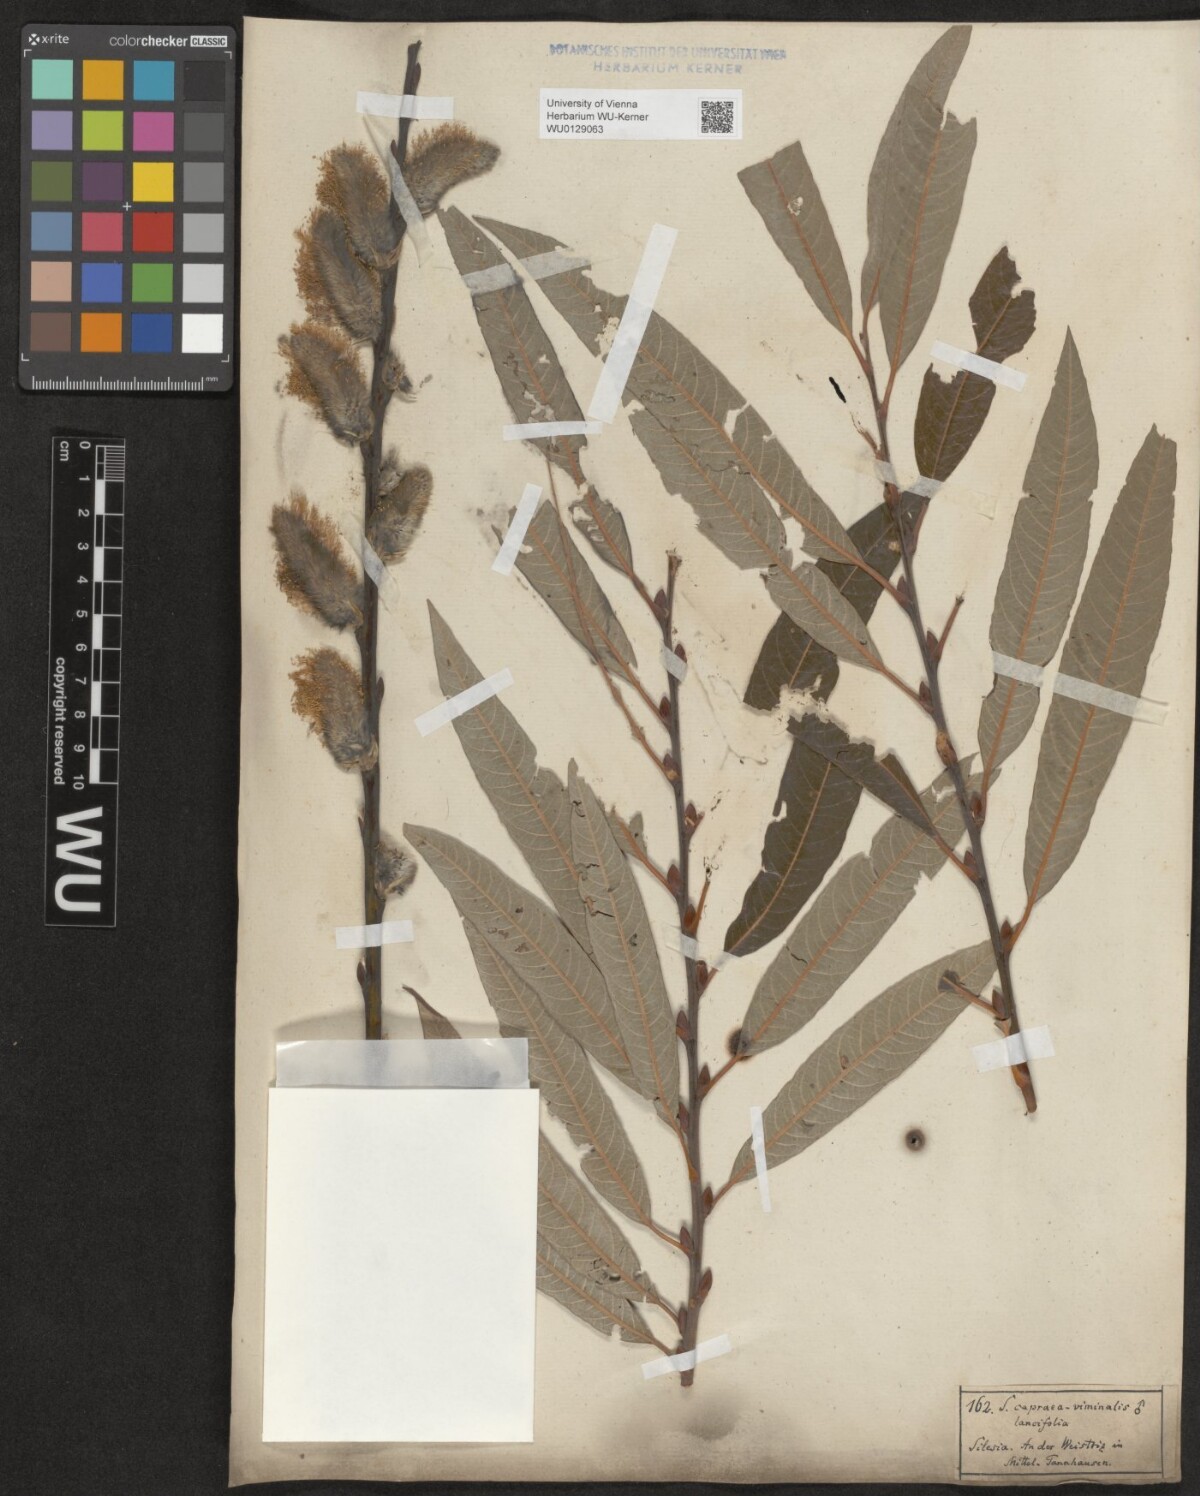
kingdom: Plantae
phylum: Tracheophyta
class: Magnoliopsida
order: Malpighiales
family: Salicaceae
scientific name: Salicaceae
